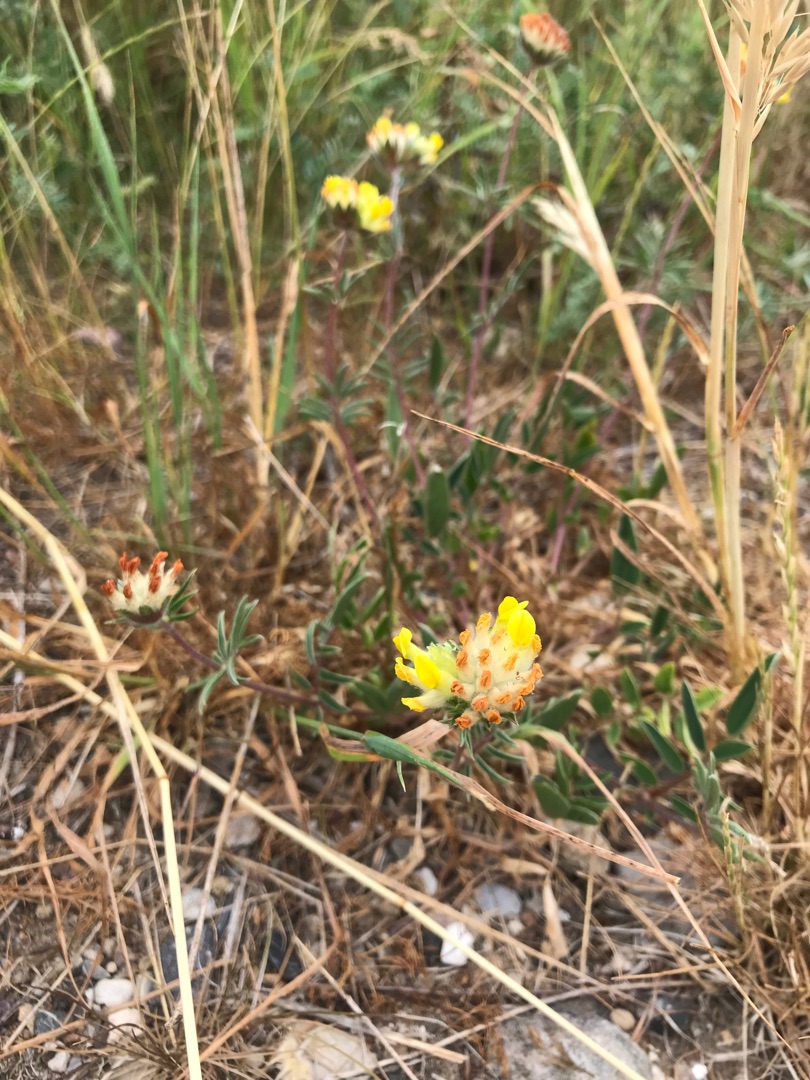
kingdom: Plantae
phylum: Tracheophyta
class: Magnoliopsida
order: Fabales
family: Fabaceae
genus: Anthyllis
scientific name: Anthyllis vulneraria
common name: Rundbælg
